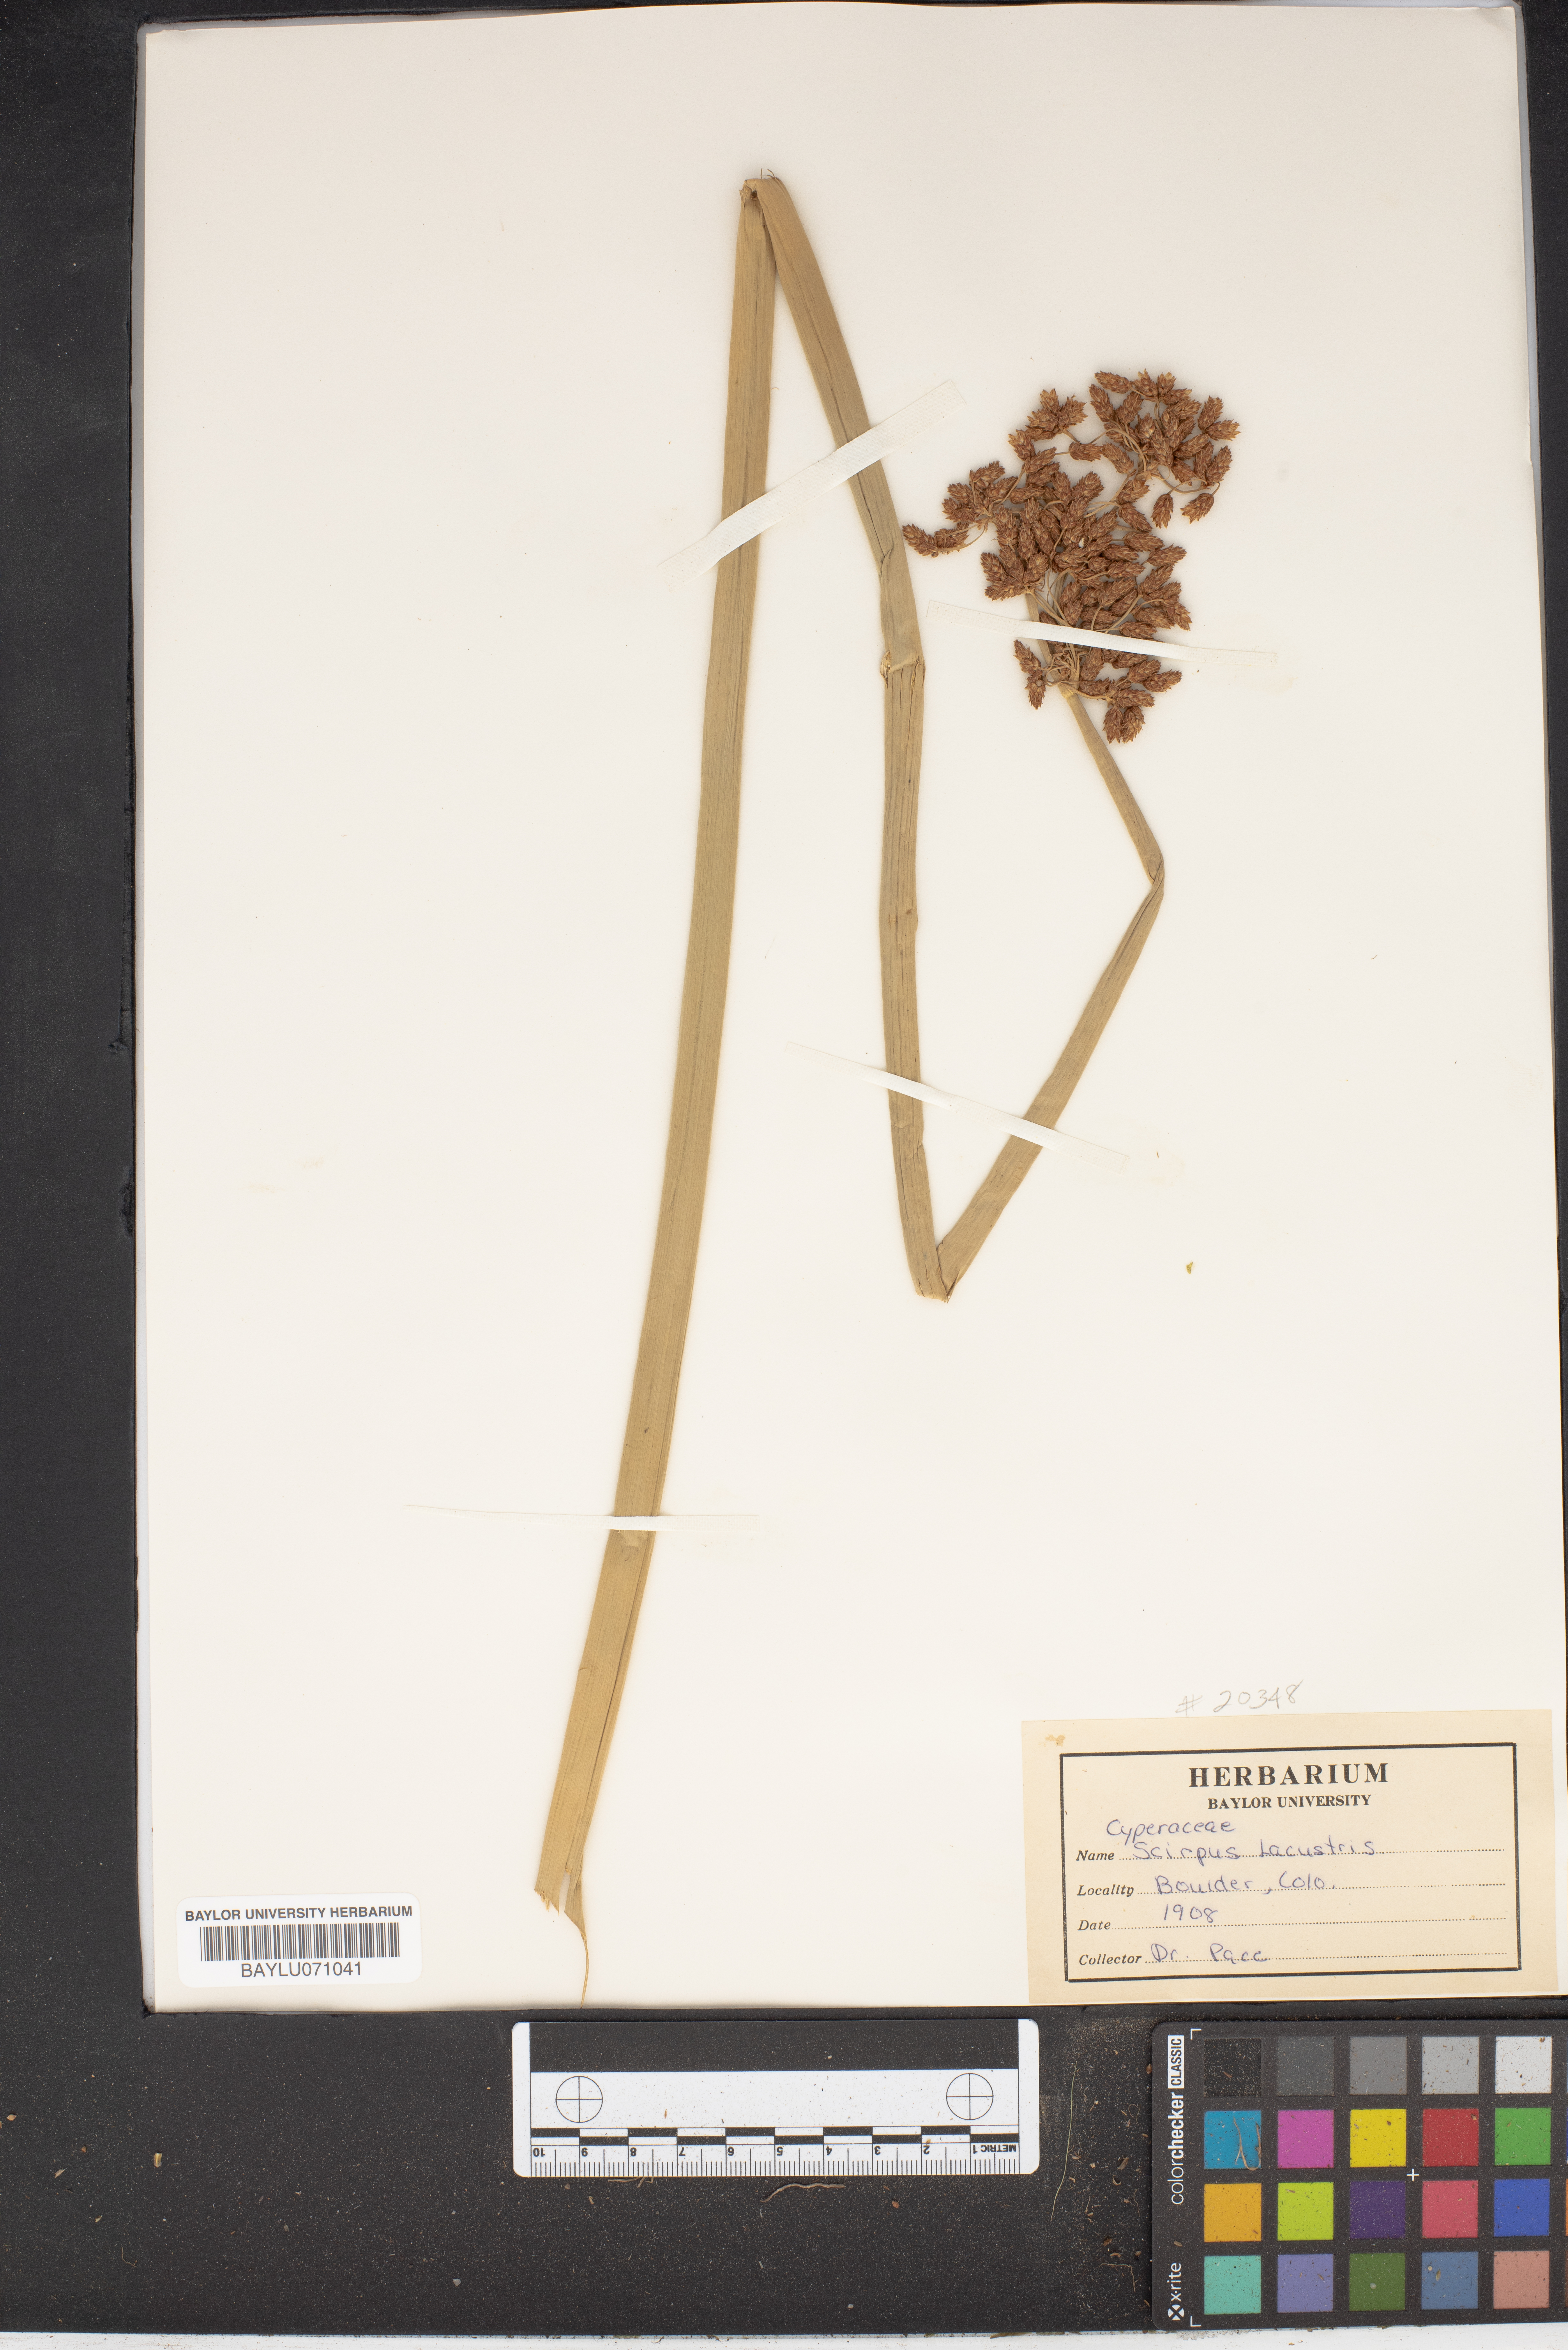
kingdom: Plantae
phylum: Tracheophyta
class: Liliopsida
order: Poales
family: Cyperaceae
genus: Schoenoplectus
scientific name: Schoenoplectus lacustris
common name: Common club-rush
